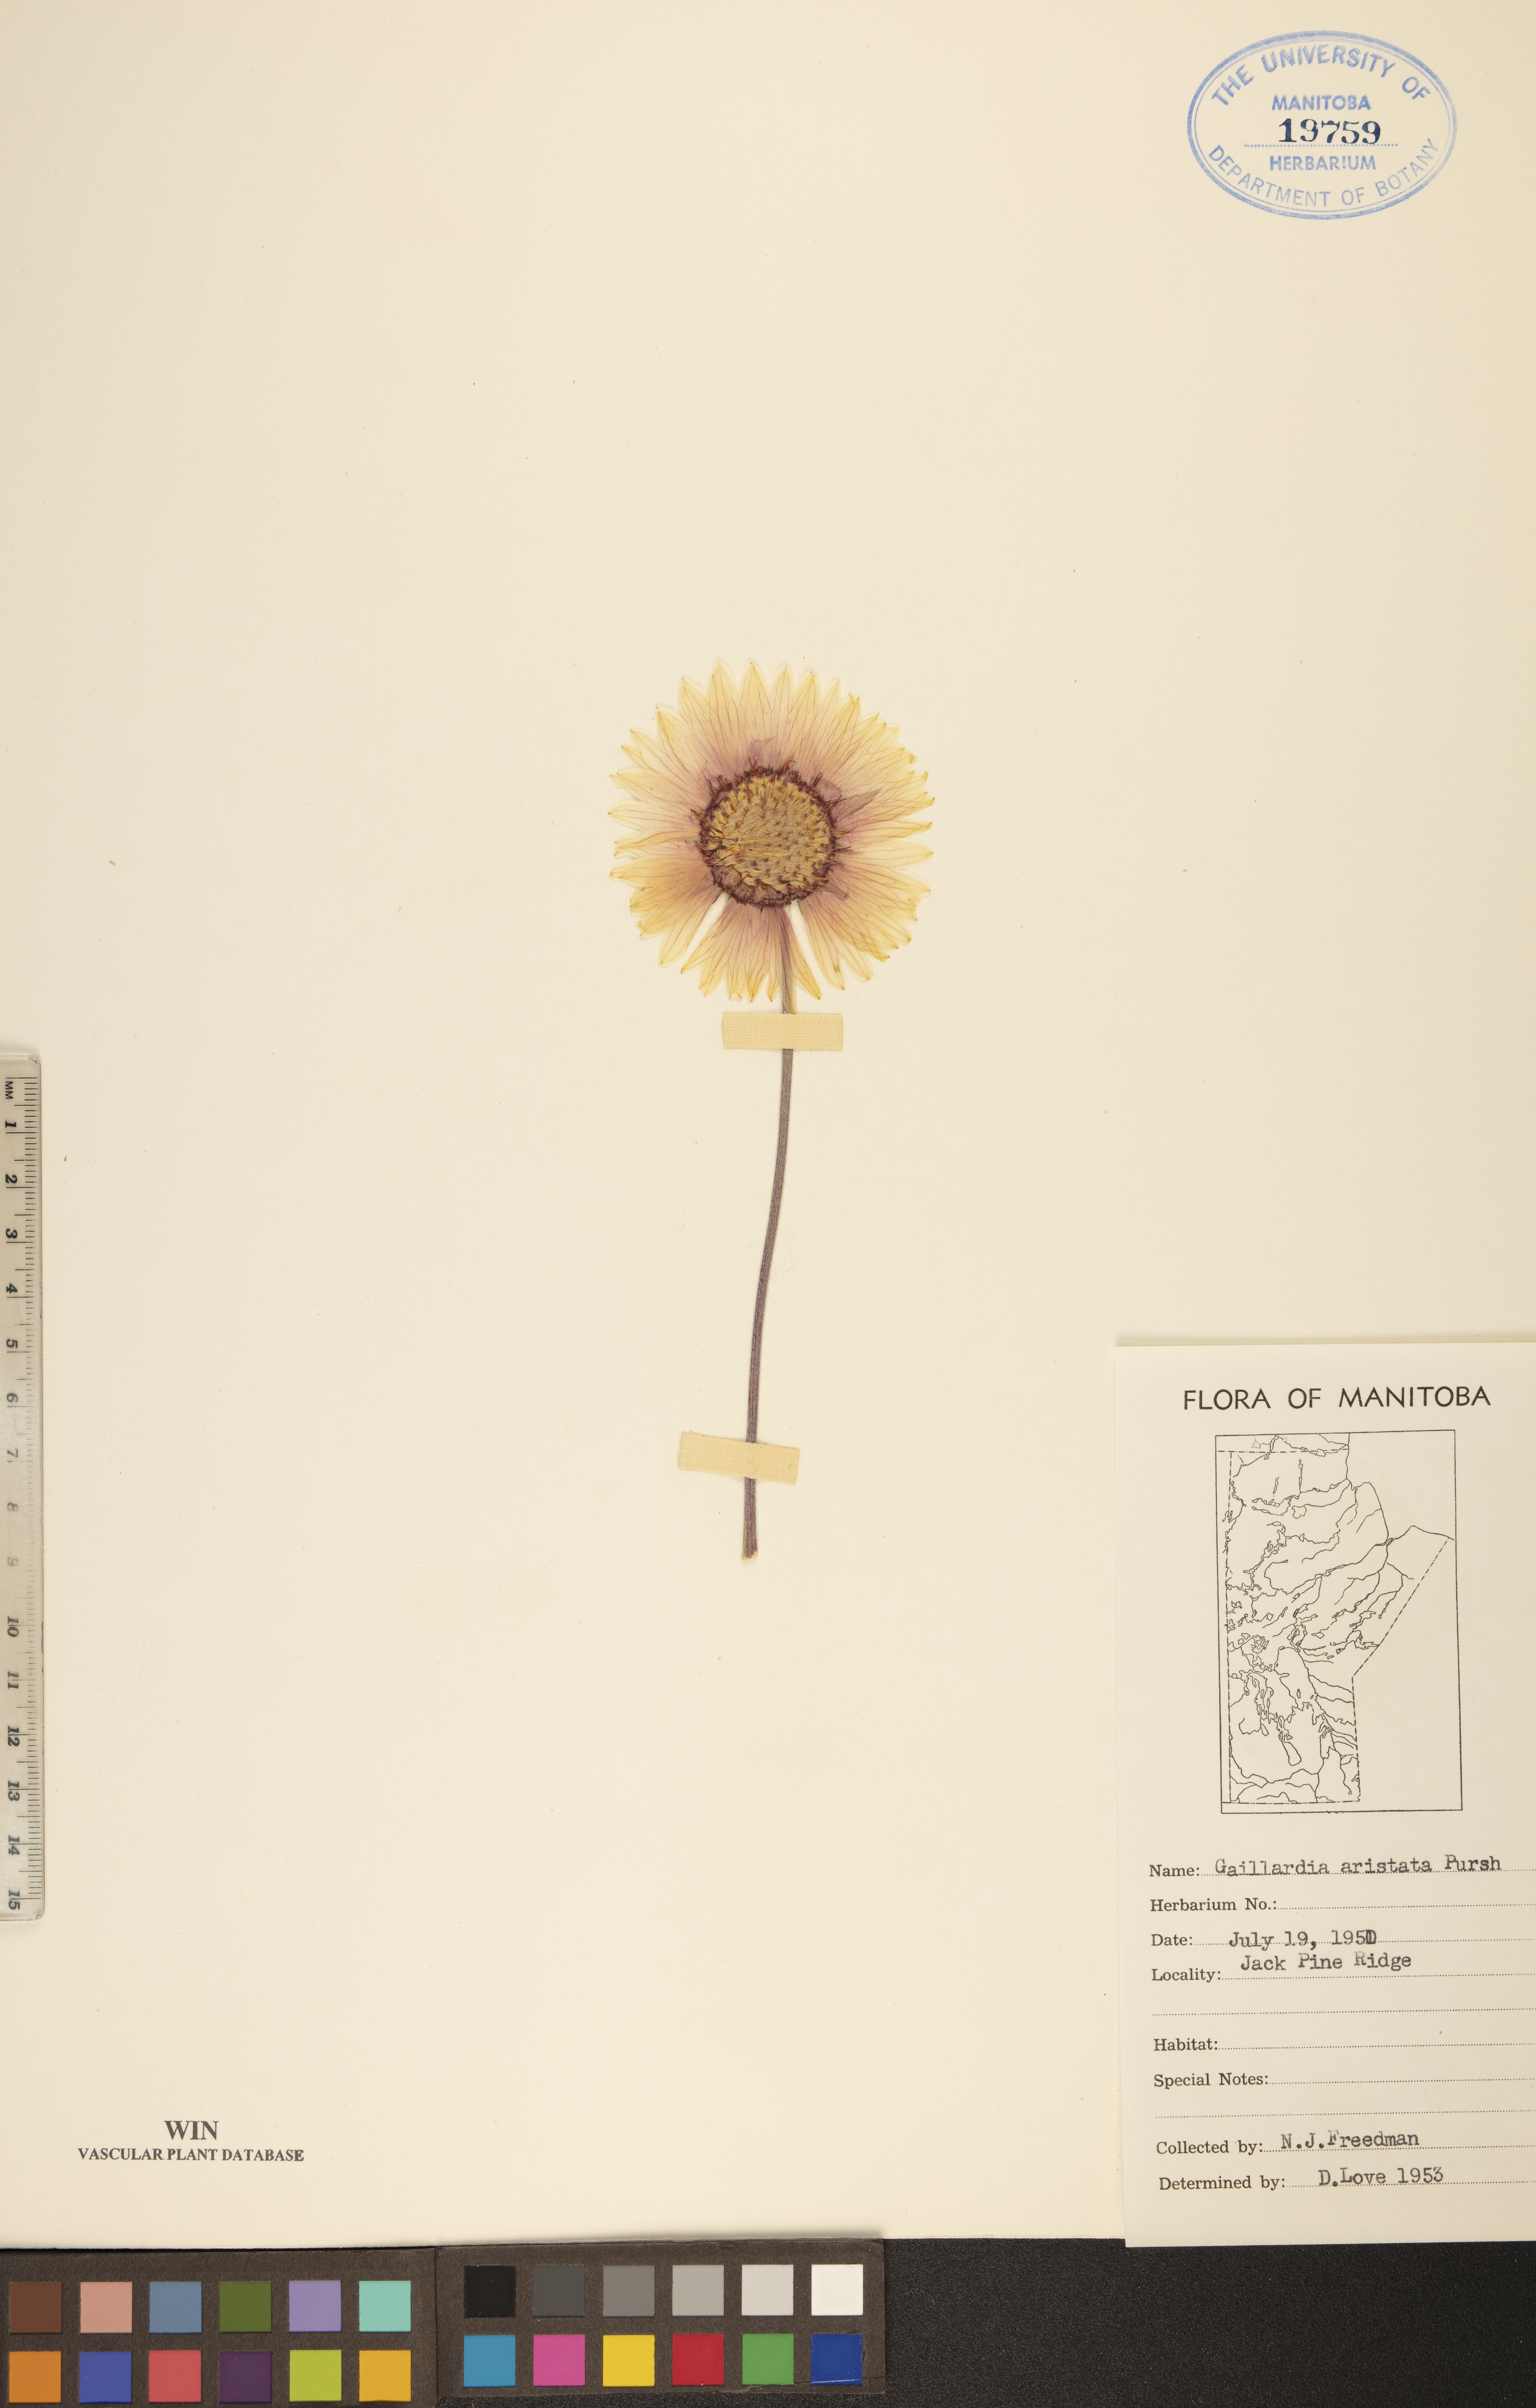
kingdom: Plantae
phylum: Tracheophyta
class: Magnoliopsida
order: Asterales
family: Asteraceae
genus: Gaillardia
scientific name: Gaillardia aristata
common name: Blanket-flower
